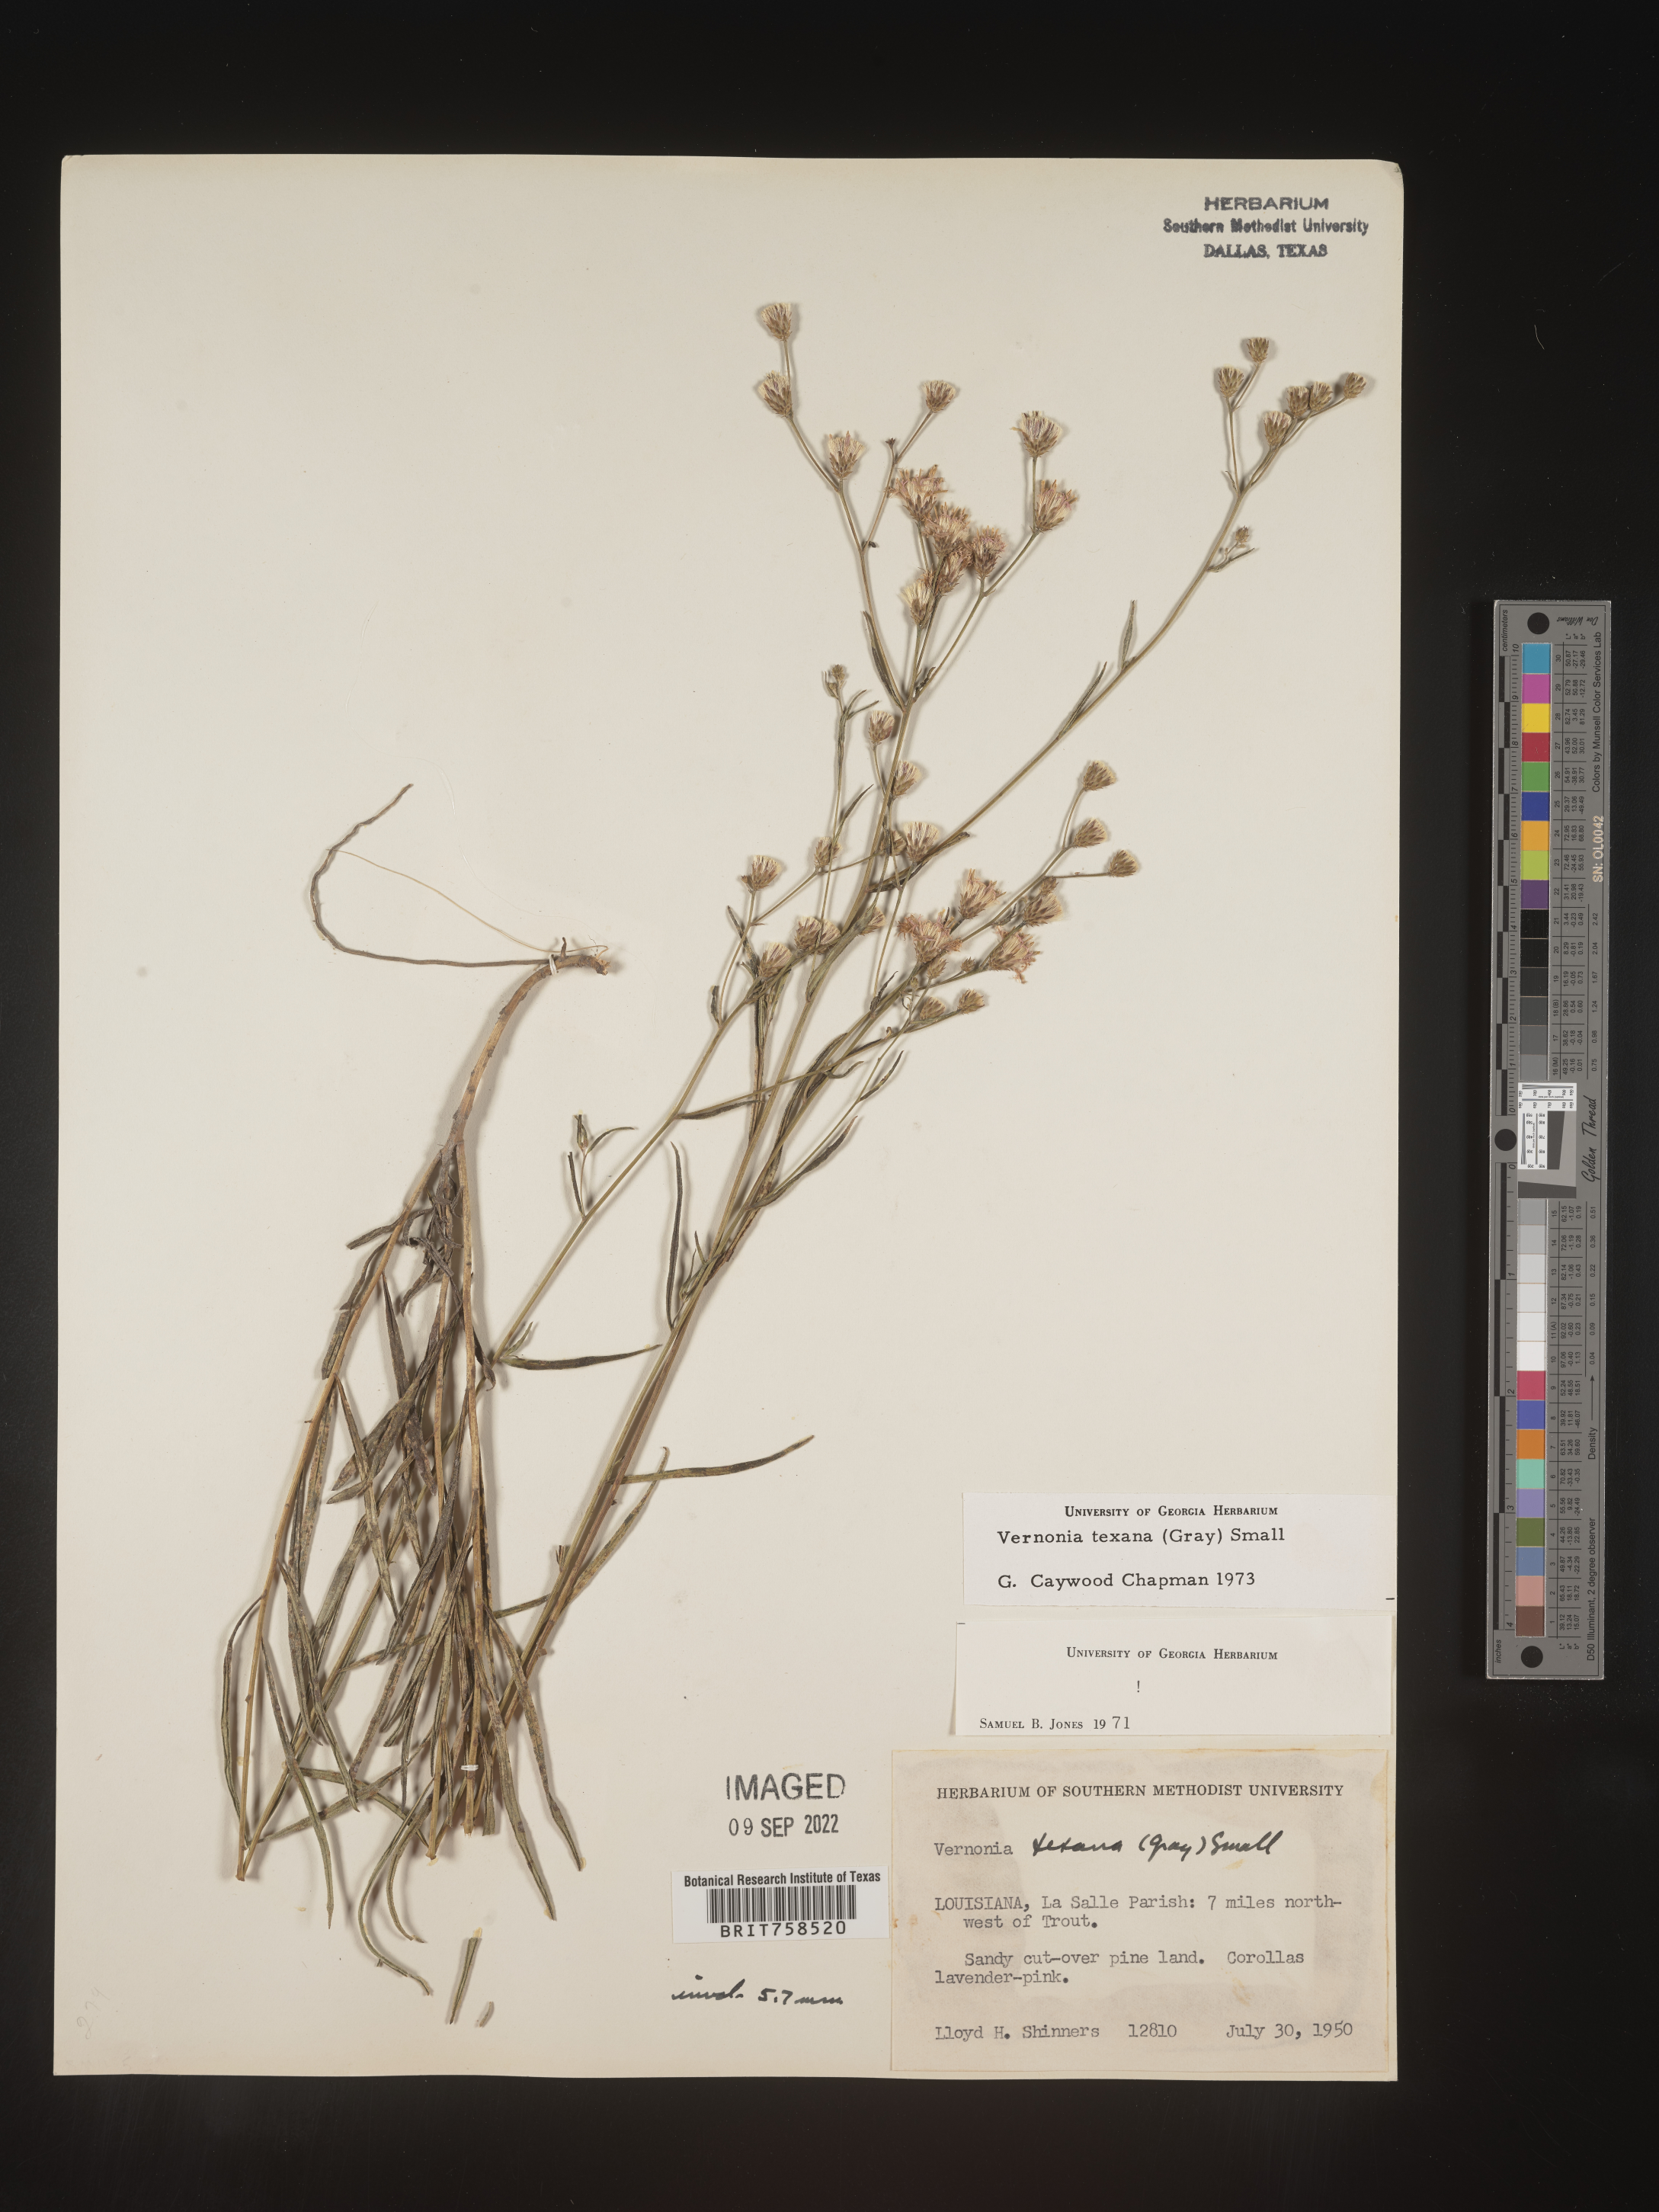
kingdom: Plantae
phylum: Tracheophyta
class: Magnoliopsida
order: Asterales
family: Asteraceae
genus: Vernonia
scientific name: Vernonia texana
